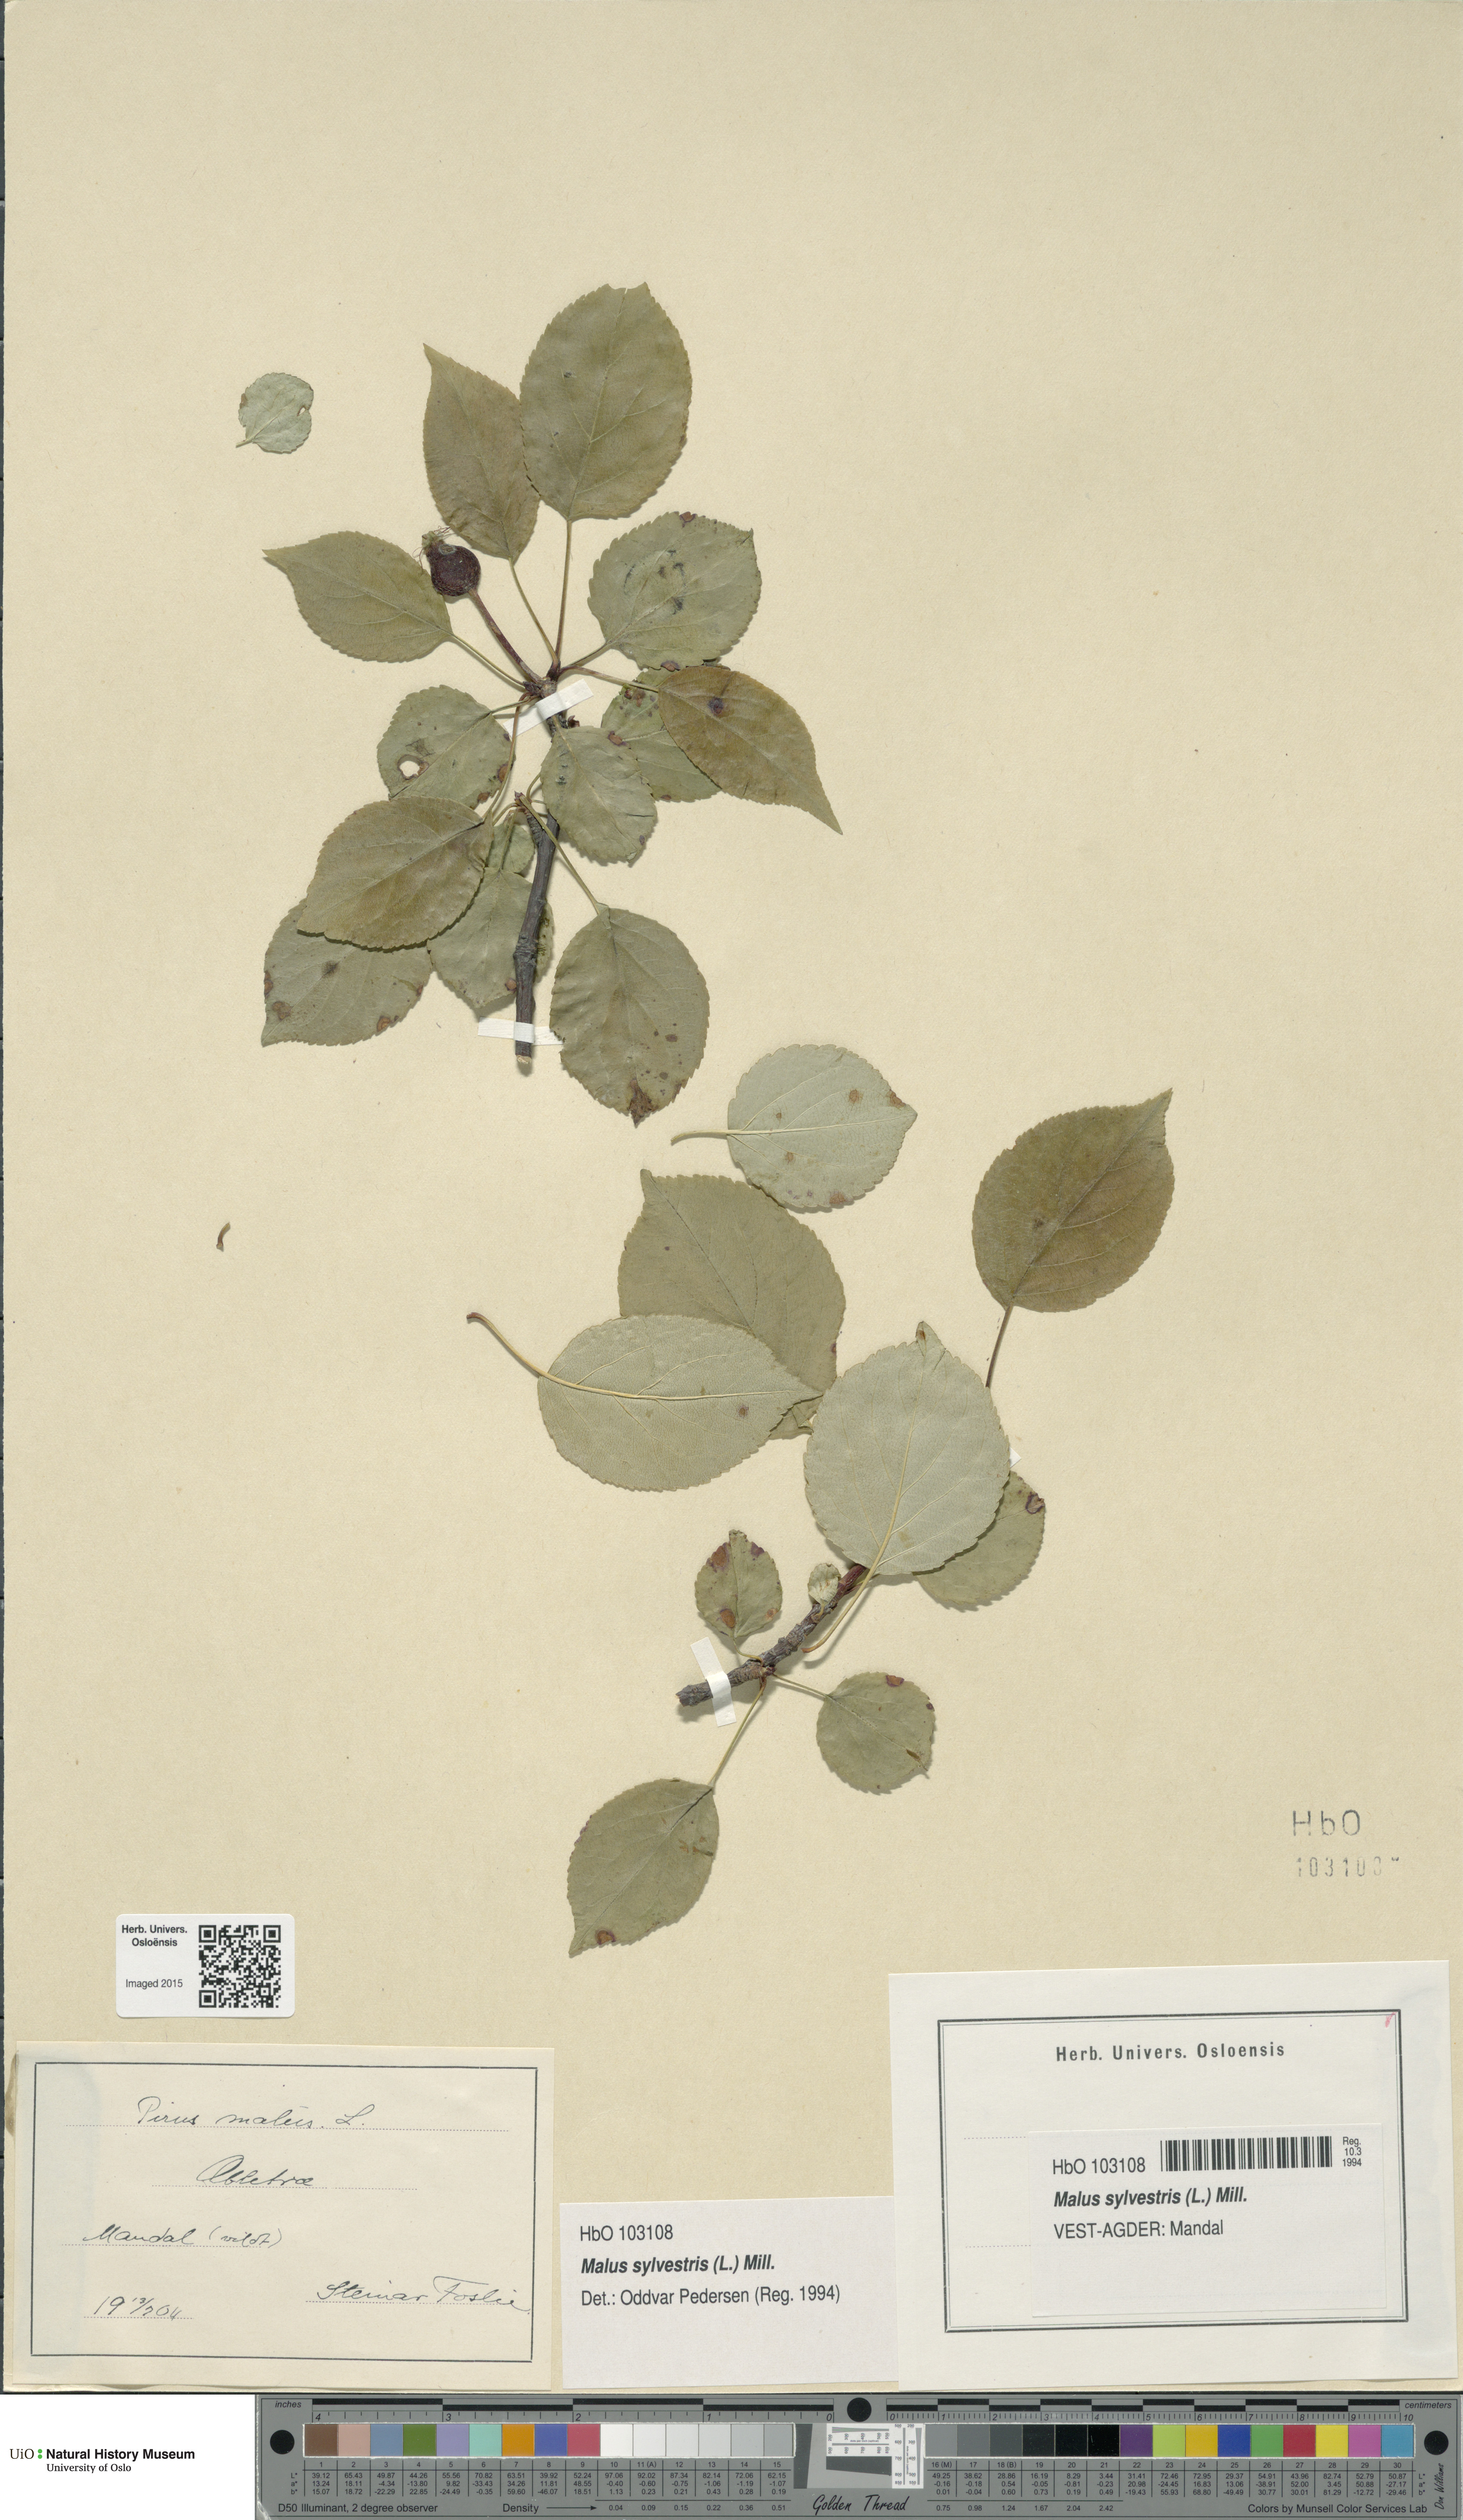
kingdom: Plantae
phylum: Tracheophyta
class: Magnoliopsida
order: Rosales
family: Rosaceae
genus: Malus
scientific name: Malus sylvestris
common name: Crab apple
